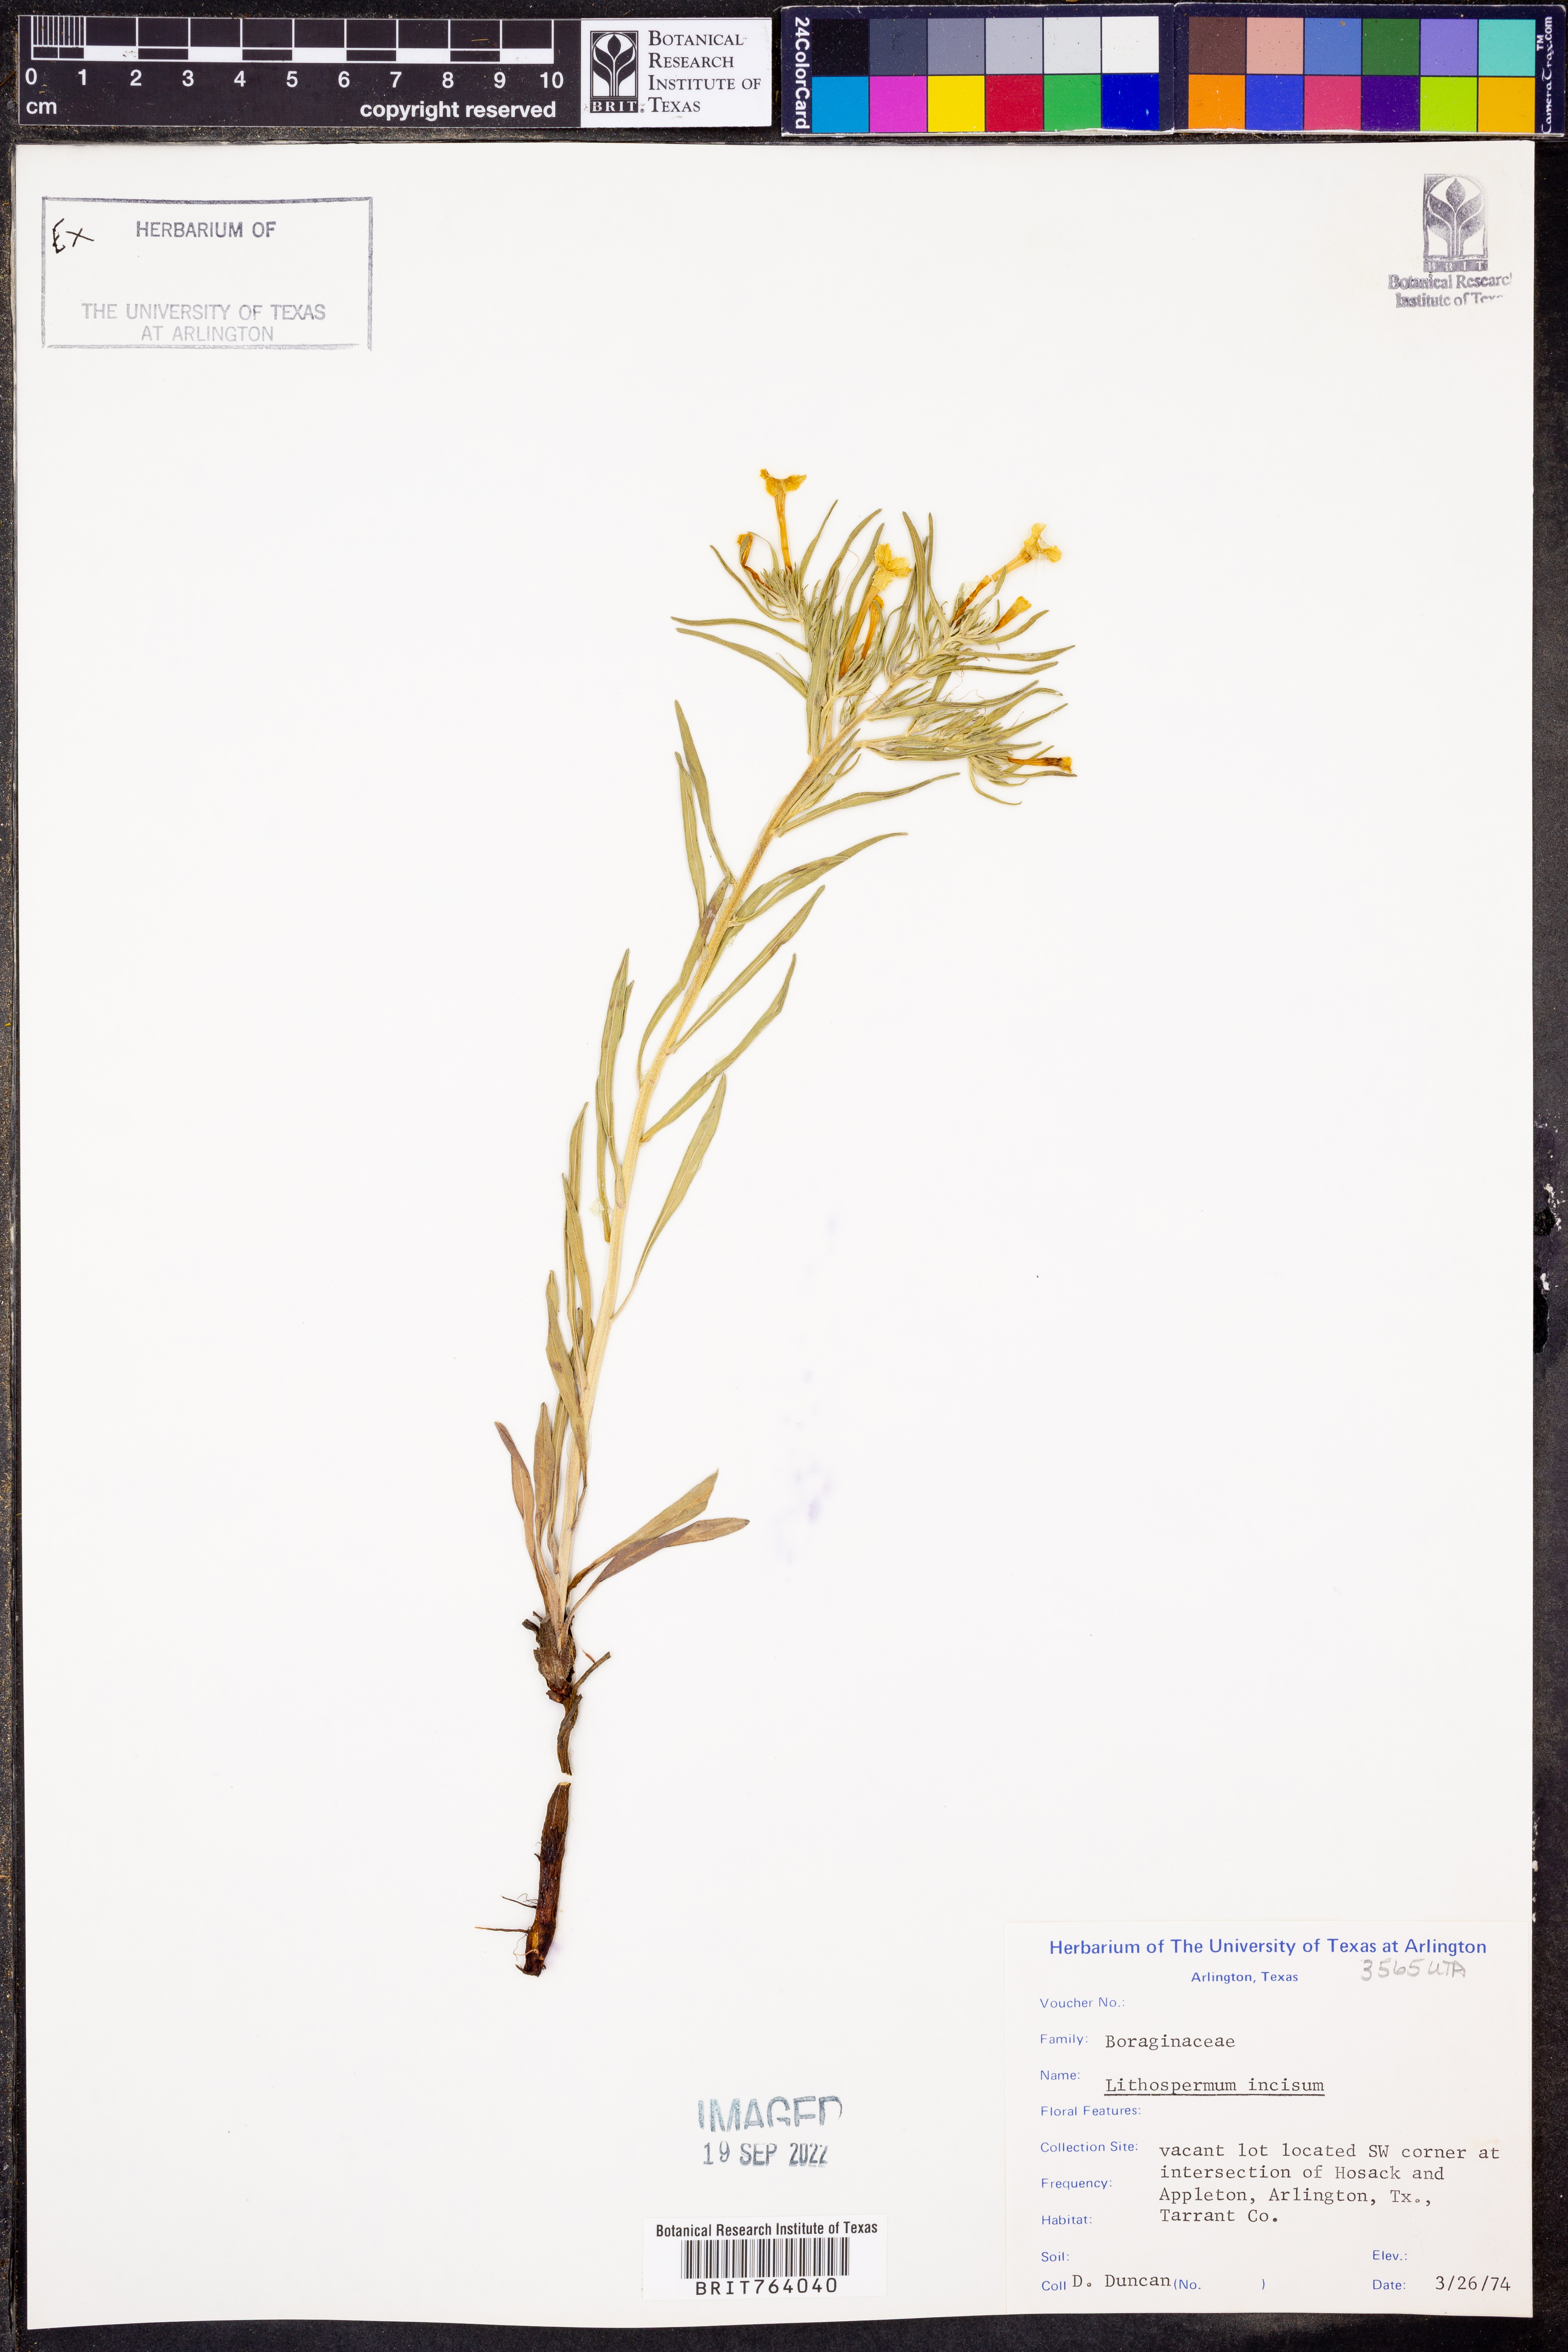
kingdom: Plantae
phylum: Tracheophyta
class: Magnoliopsida
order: Boraginales
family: Boraginaceae
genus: Lithospermum
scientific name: Lithospermum incisum
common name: Fringed gromwell
